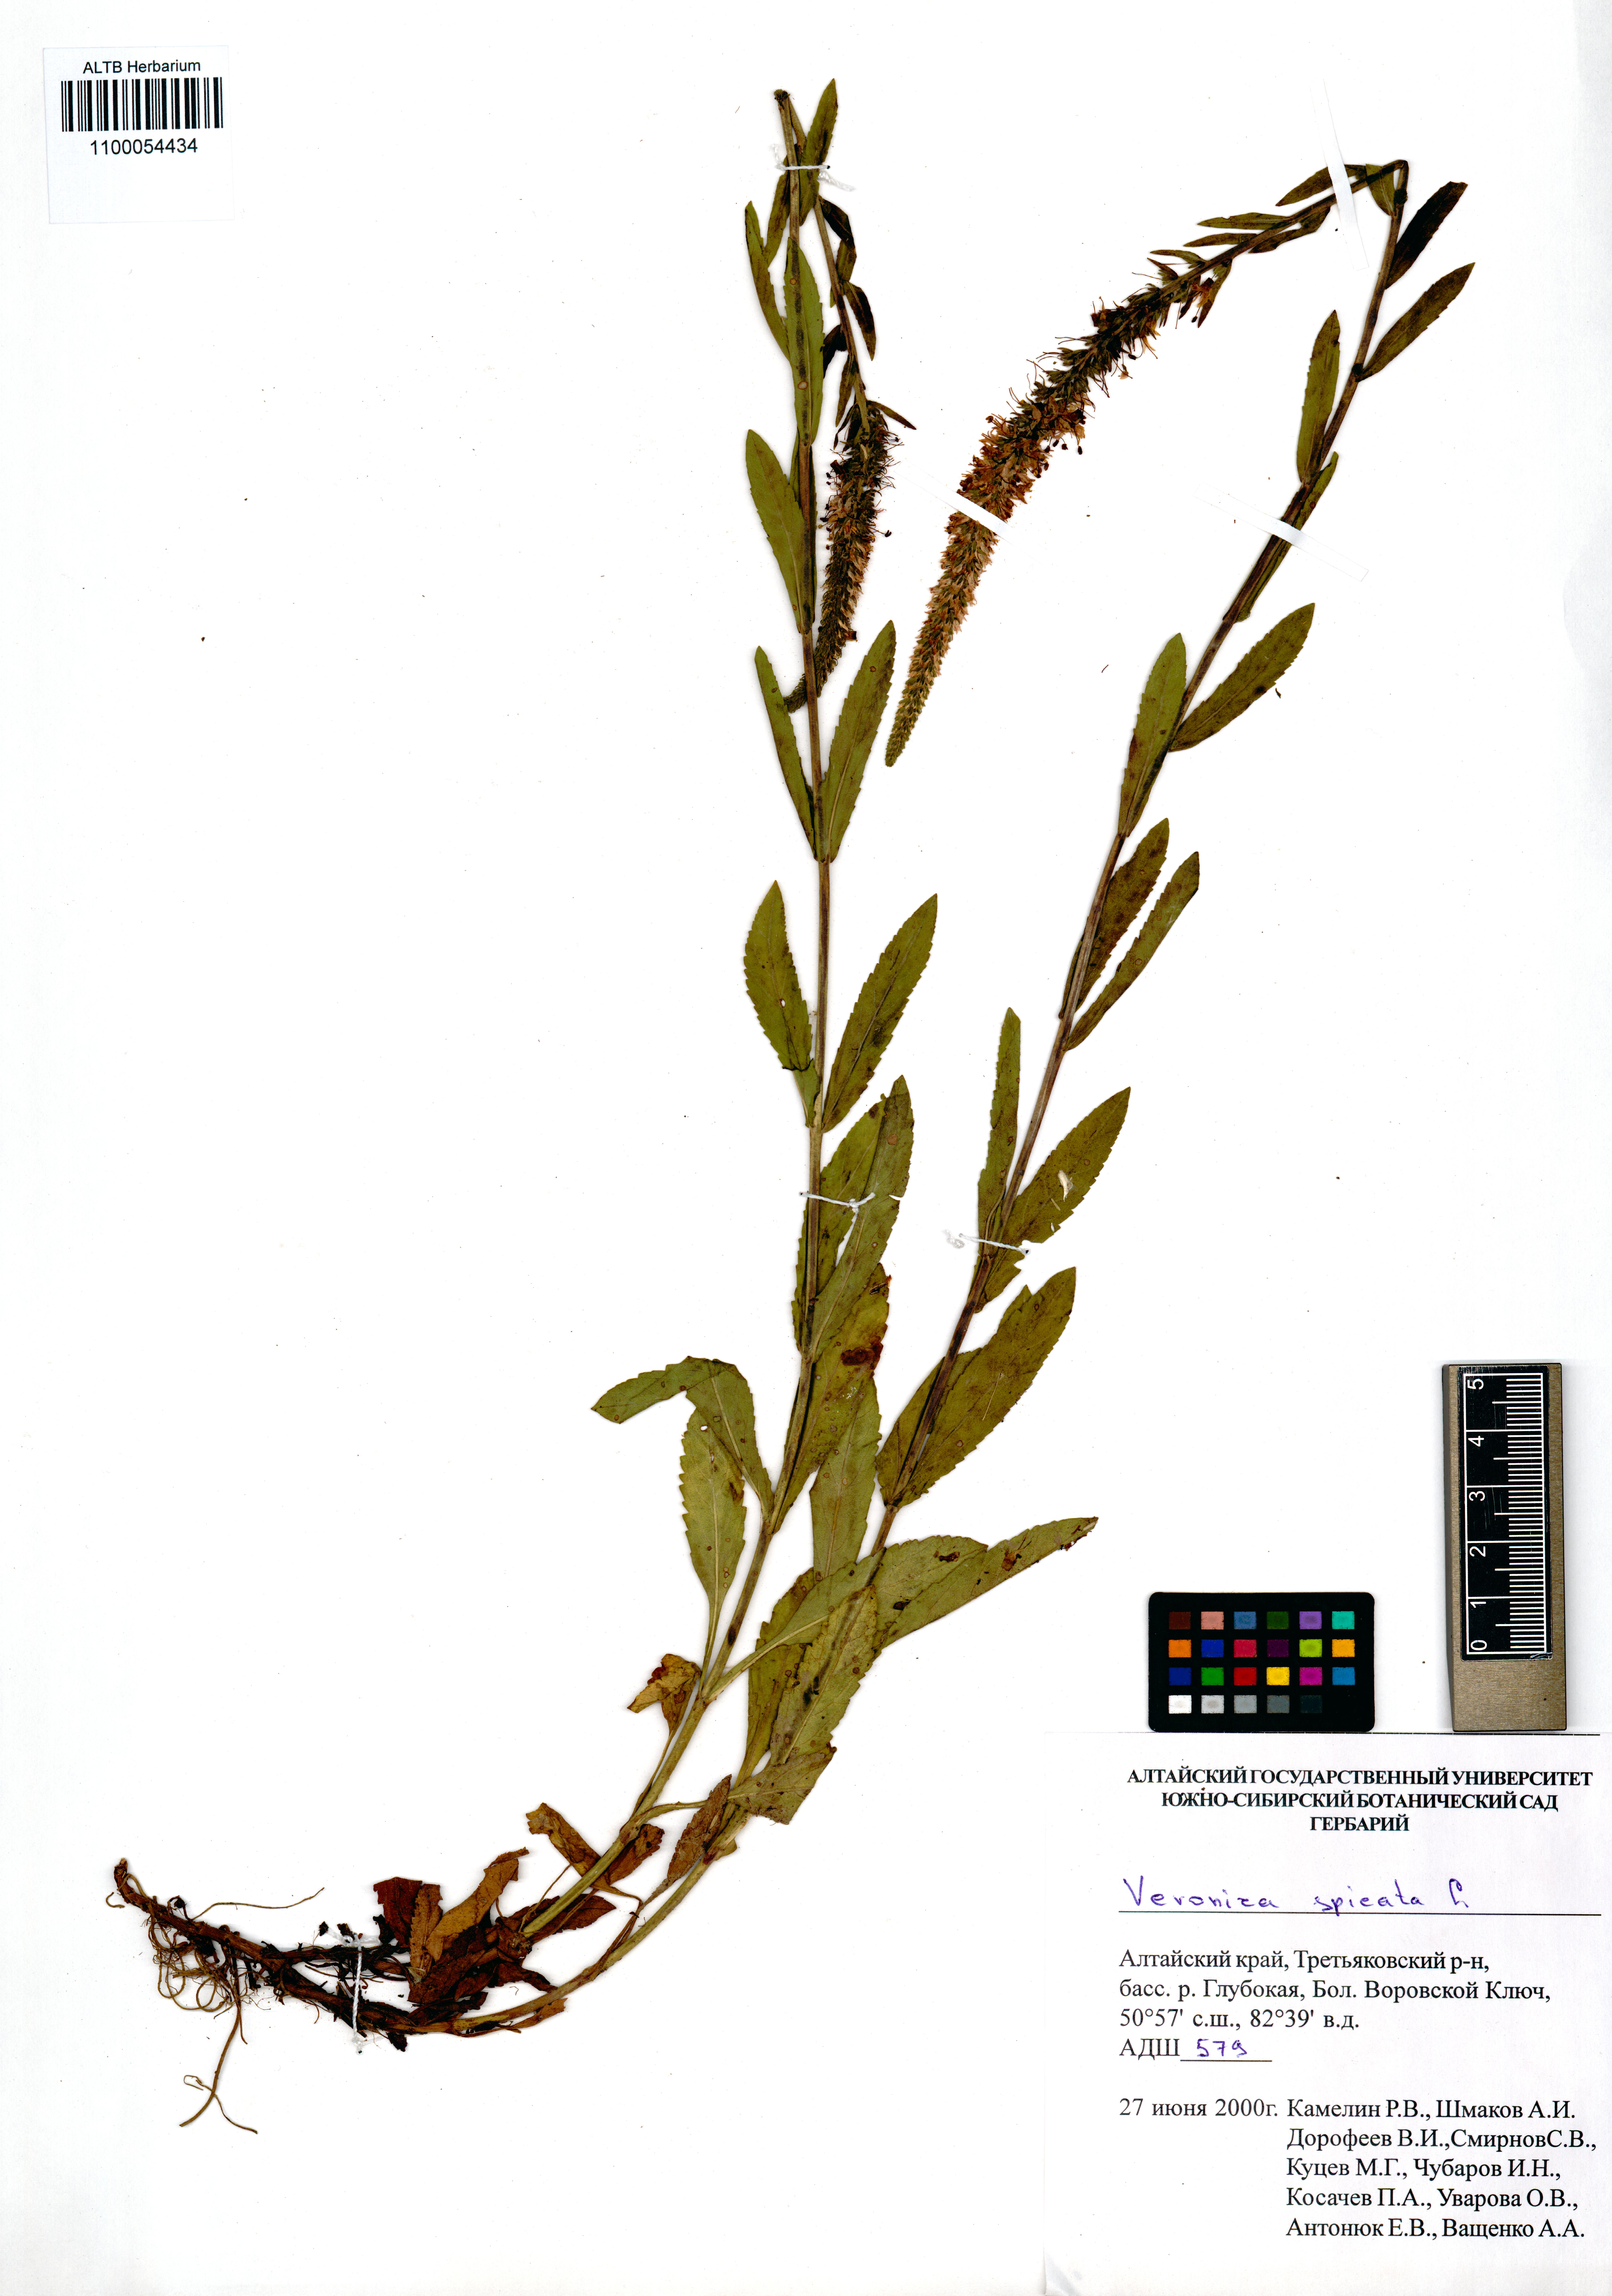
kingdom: Plantae
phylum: Tracheophyta
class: Magnoliopsida
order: Lamiales
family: Plantaginaceae
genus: Veronica
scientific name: Veronica spicata
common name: Spiked speedwell
